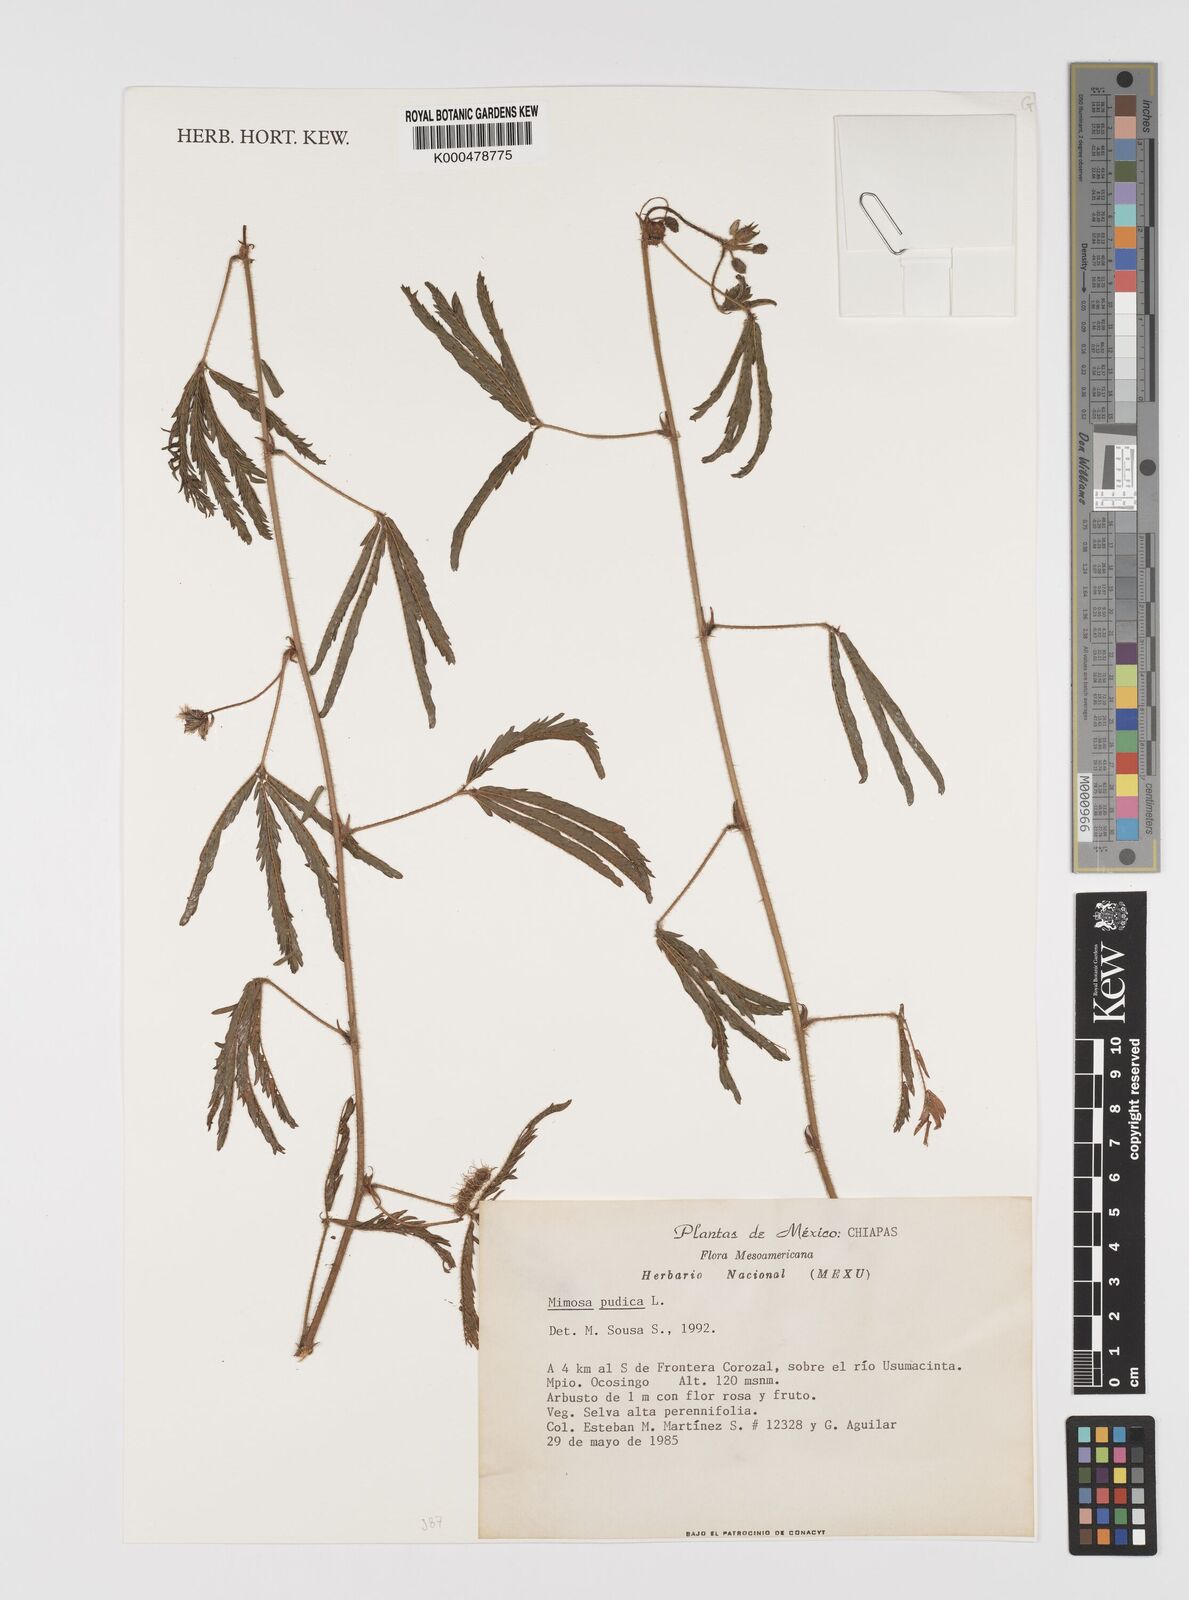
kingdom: Plantae
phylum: Tracheophyta
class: Magnoliopsida
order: Fabales
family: Fabaceae
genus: Mimosa
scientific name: Mimosa pudica
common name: Sensitive plant
